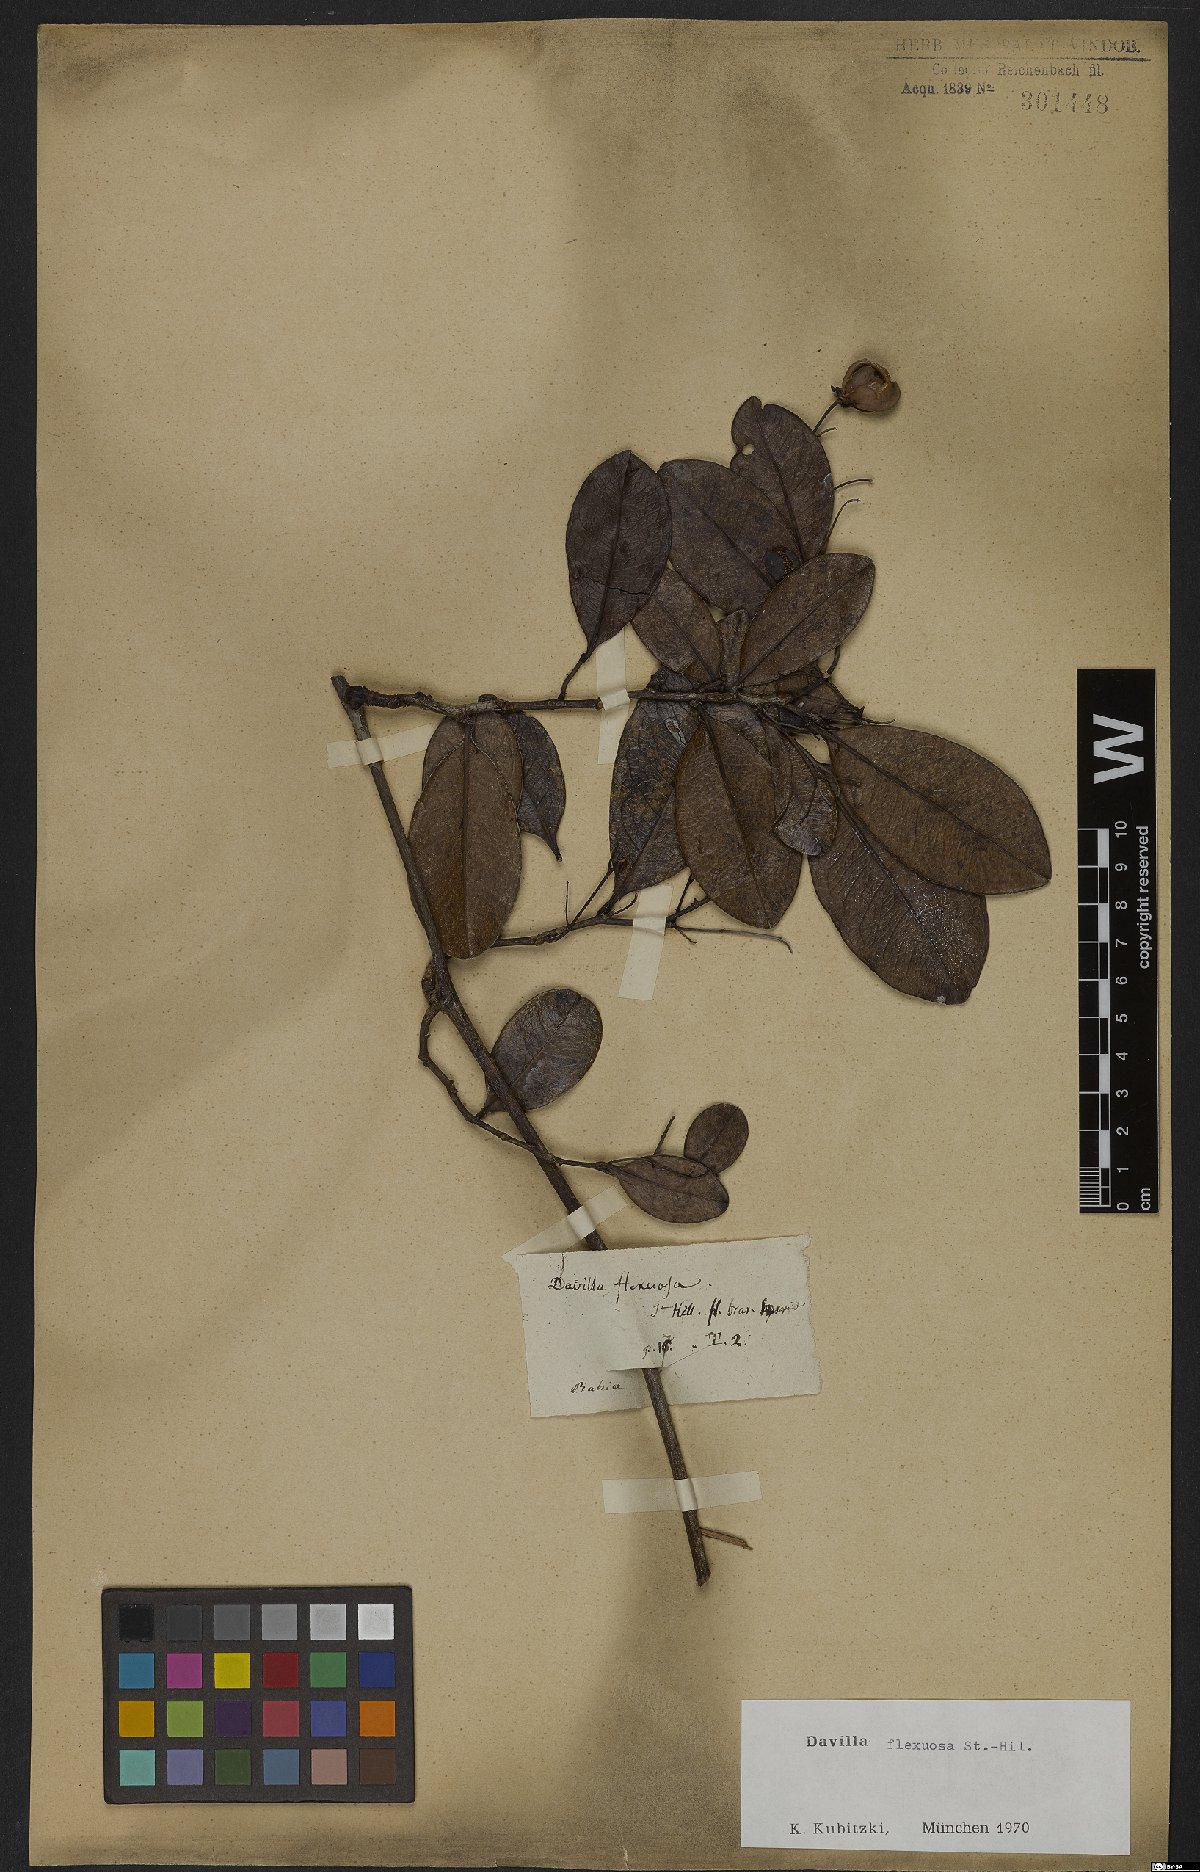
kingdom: Plantae
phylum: Tracheophyta
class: Magnoliopsida
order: Dilleniales
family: Dilleniaceae
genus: Davilla
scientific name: Davilla flexuosa
